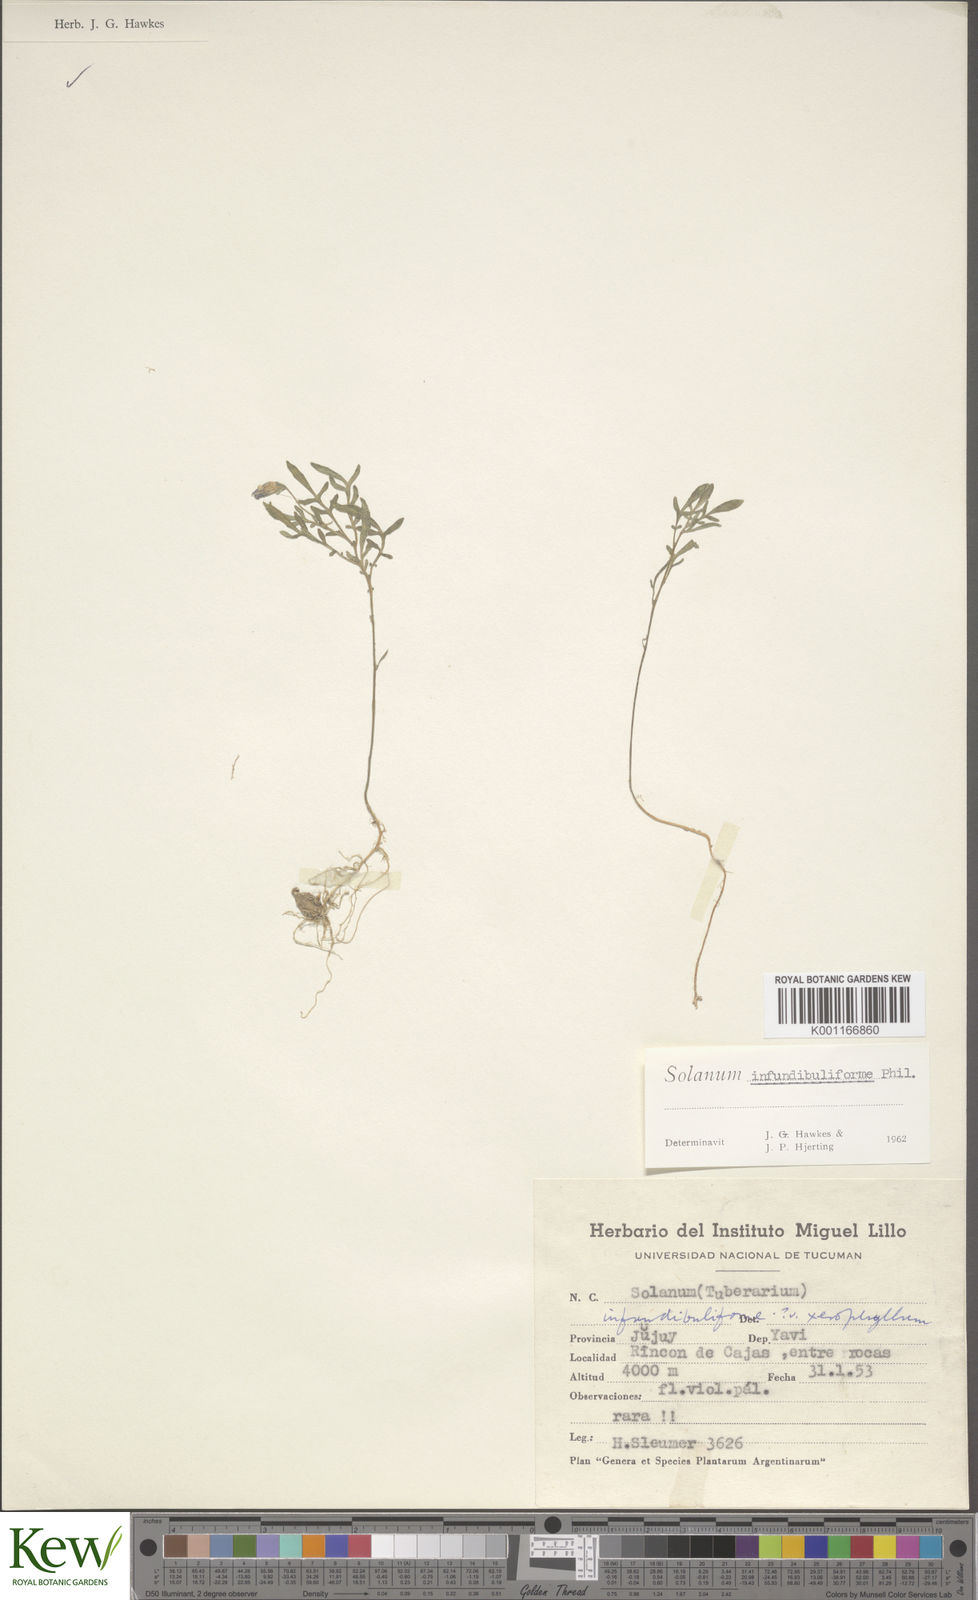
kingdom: Plantae
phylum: Tracheophyta
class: Magnoliopsida
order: Solanales
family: Solanaceae
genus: Solanum
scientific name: Solanum infundibuliforme
